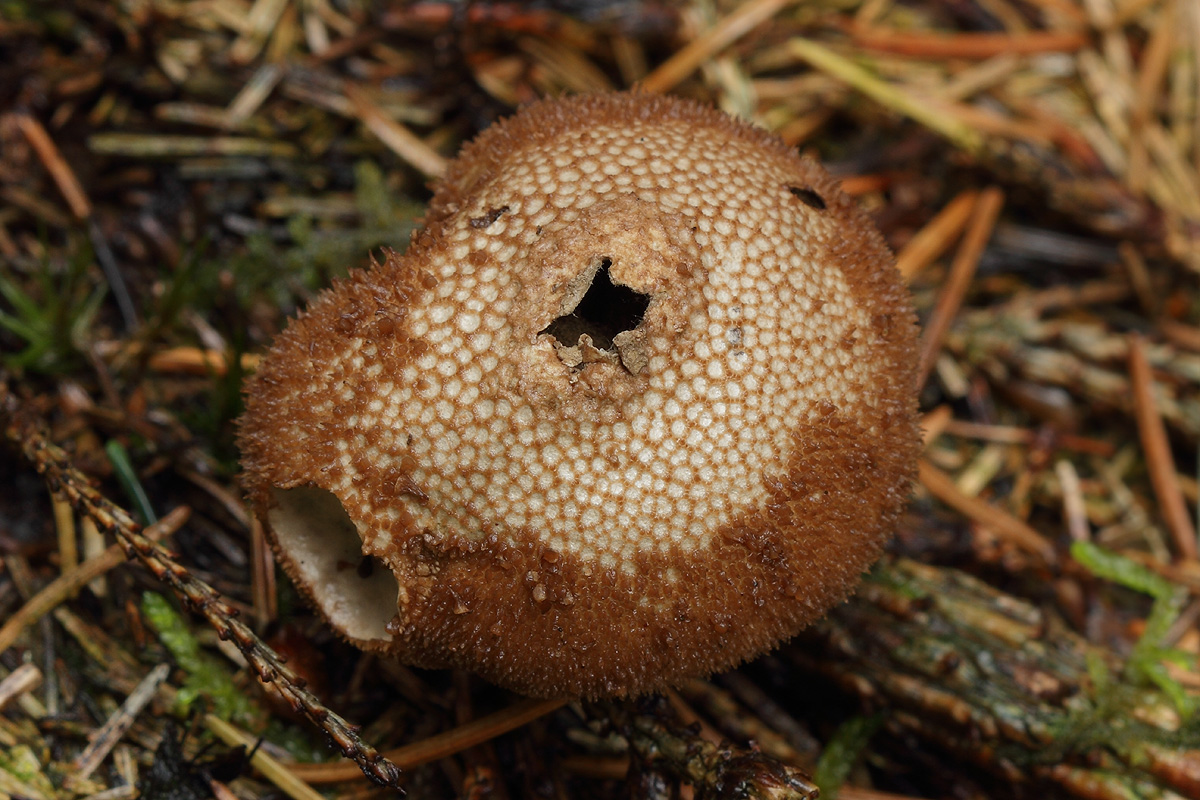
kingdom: Fungi
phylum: Basidiomycota
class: Agaricomycetes
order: Agaricales
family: Lycoperdaceae
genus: Lycoperdon
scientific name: Lycoperdon nigrescens
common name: sortagtig støvbold
